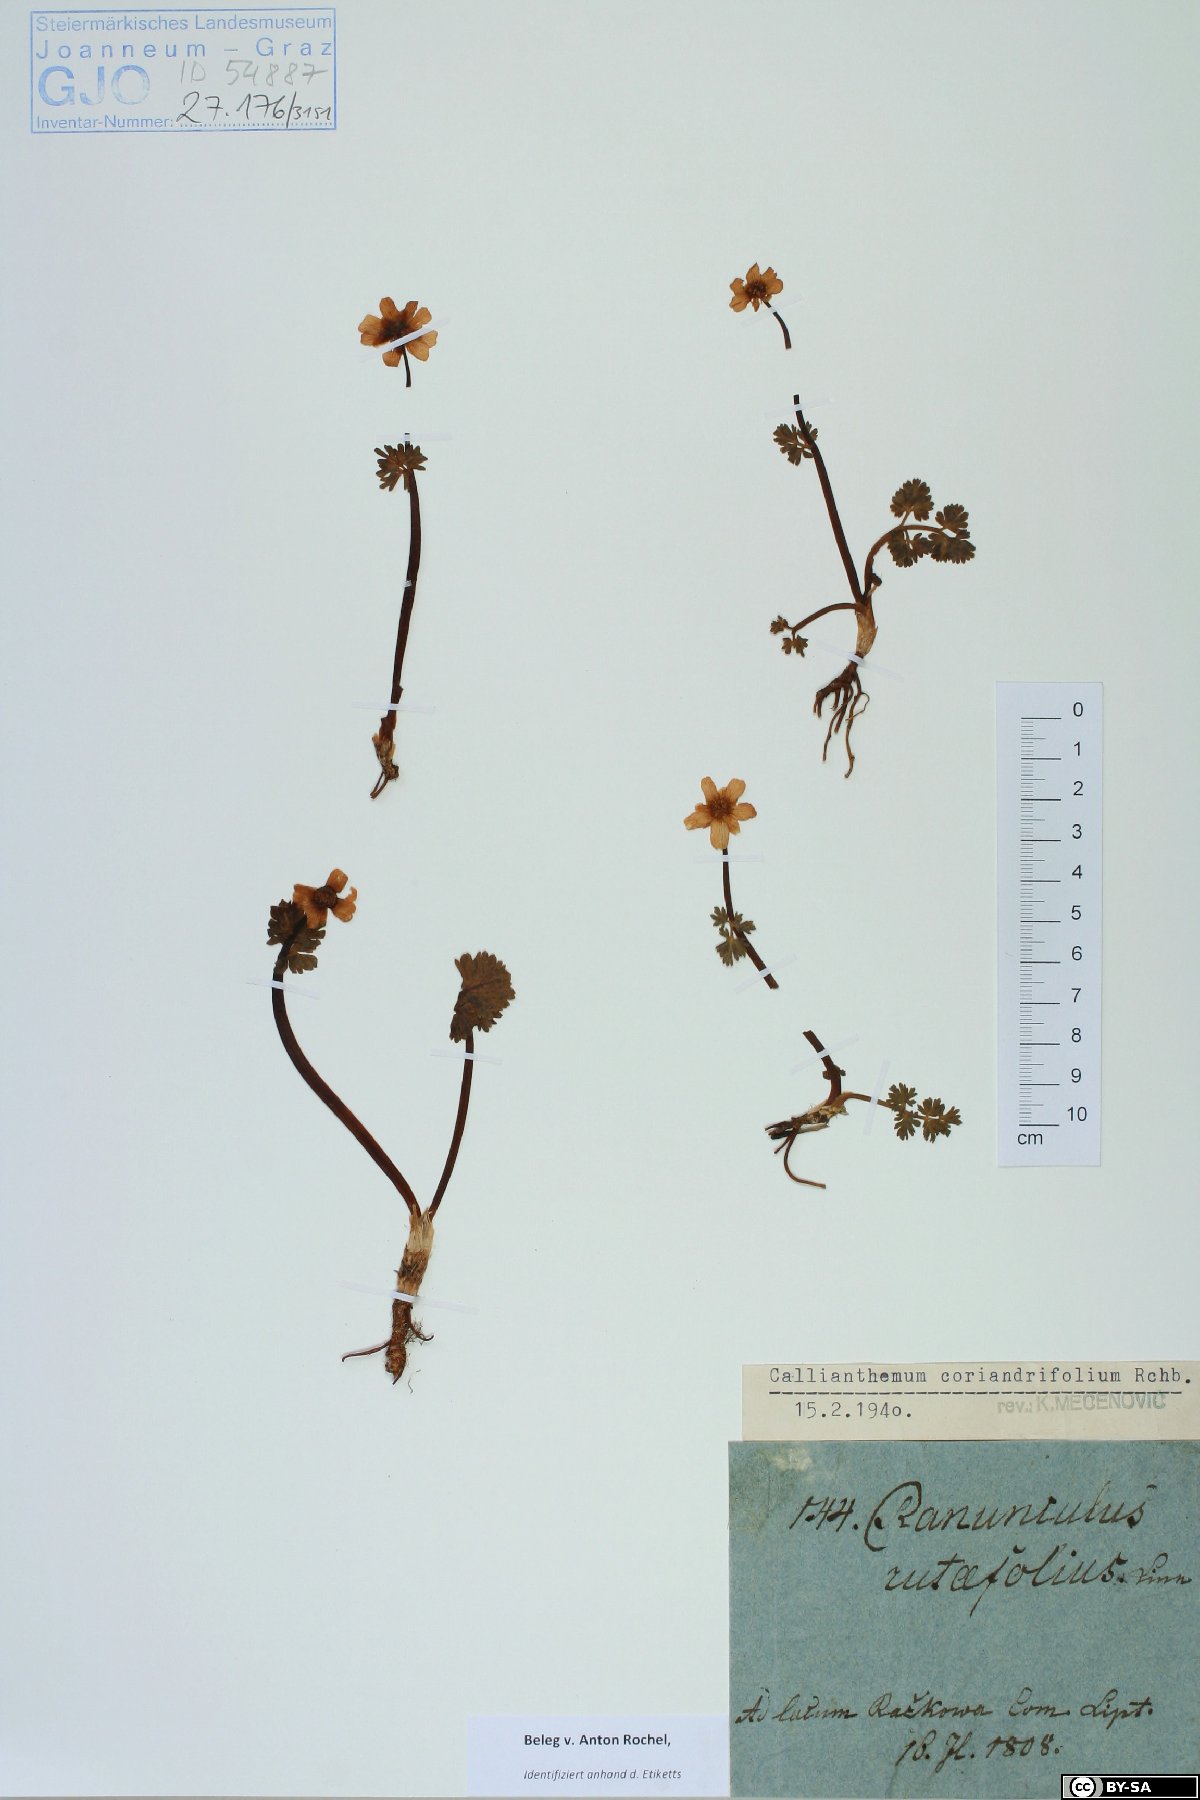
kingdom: Plantae
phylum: Tracheophyta
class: Magnoliopsida
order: Ranunculales
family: Ranunculaceae
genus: Callianthemum
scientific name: Callianthemum coriandrifolium
